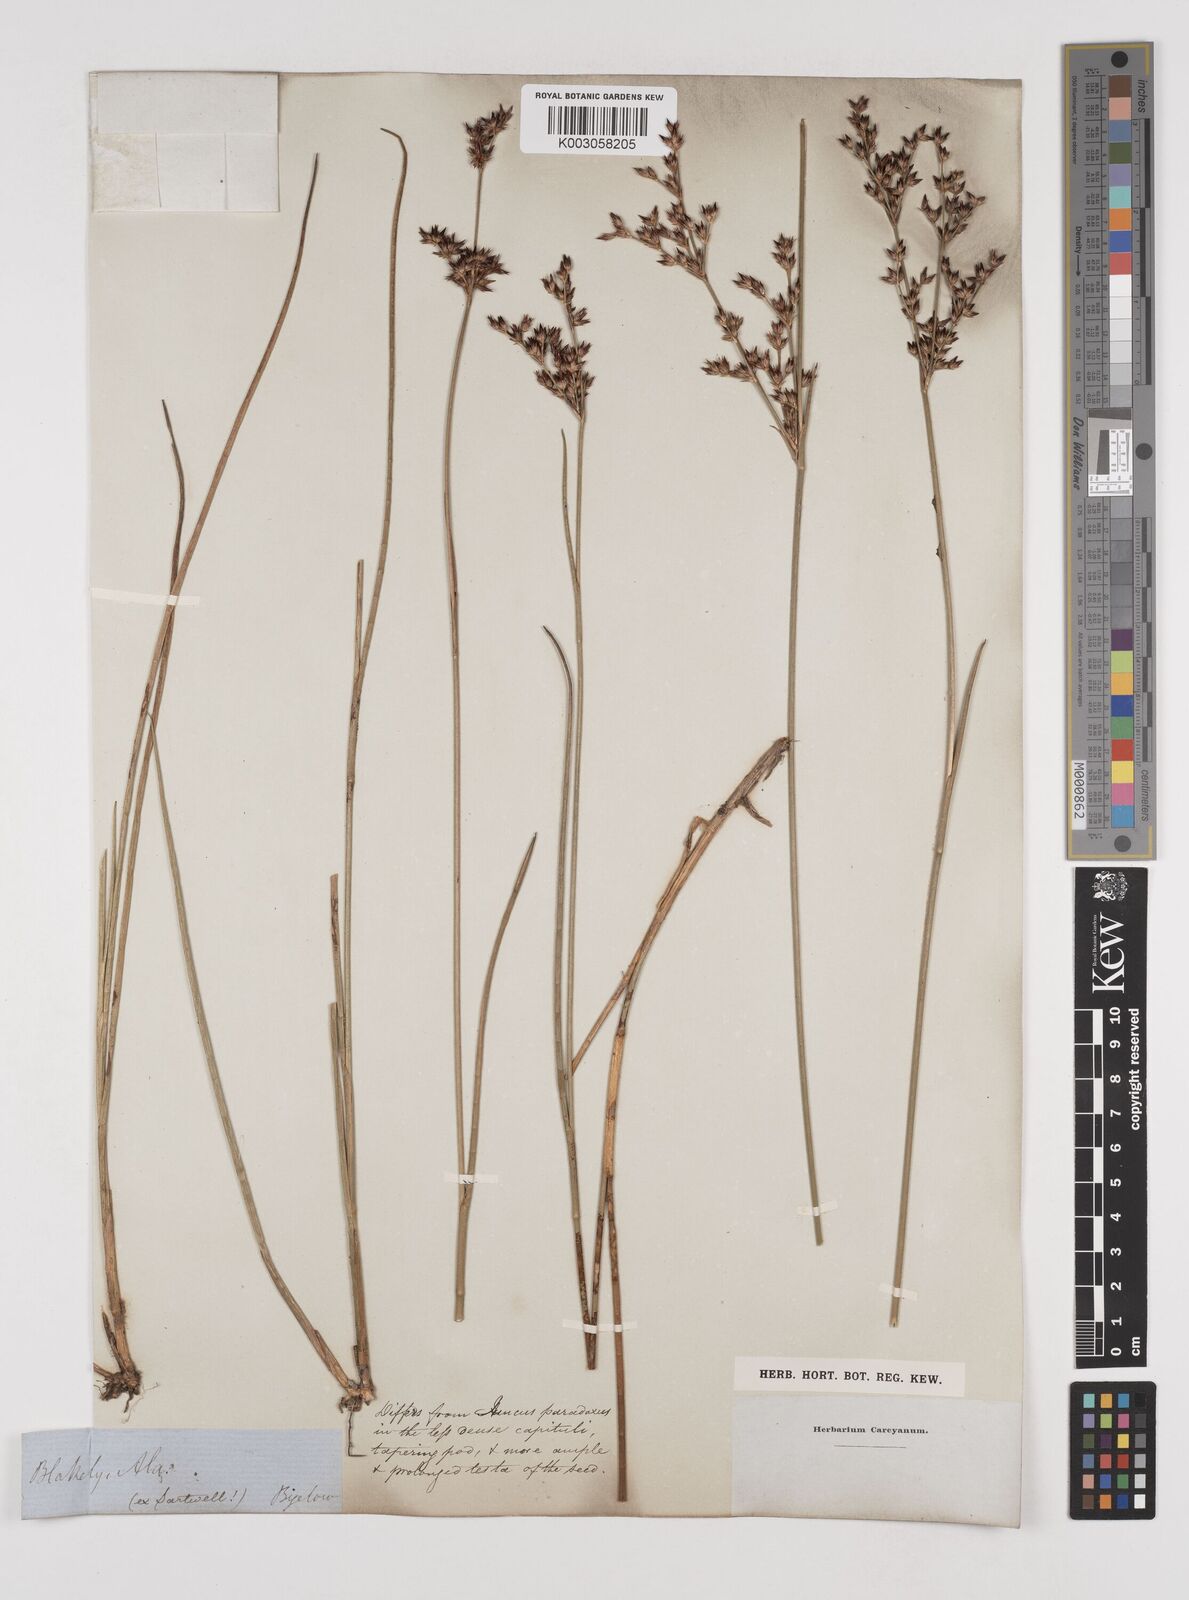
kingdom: Plantae
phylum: Tracheophyta
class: Liliopsida
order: Poales
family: Juncaceae
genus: Juncus
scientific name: Juncus
